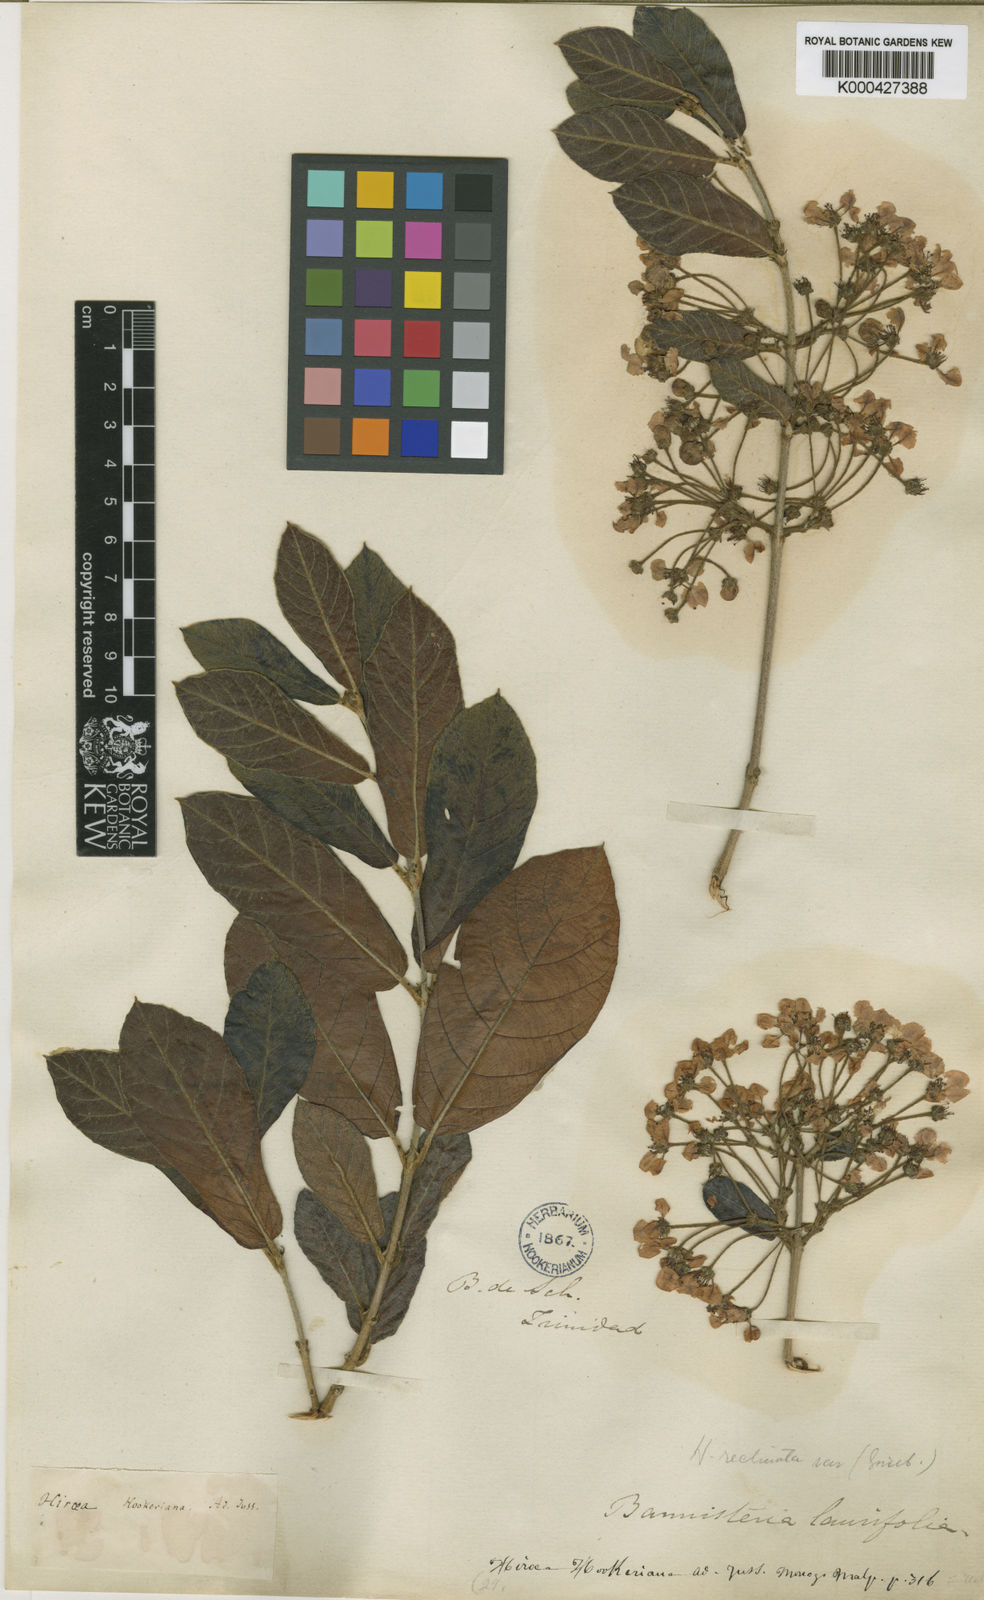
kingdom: Plantae
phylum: Tracheophyta
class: Magnoliopsida
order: Malpighiales
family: Malpighiaceae
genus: Hiraea
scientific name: Hiraea reclinata
